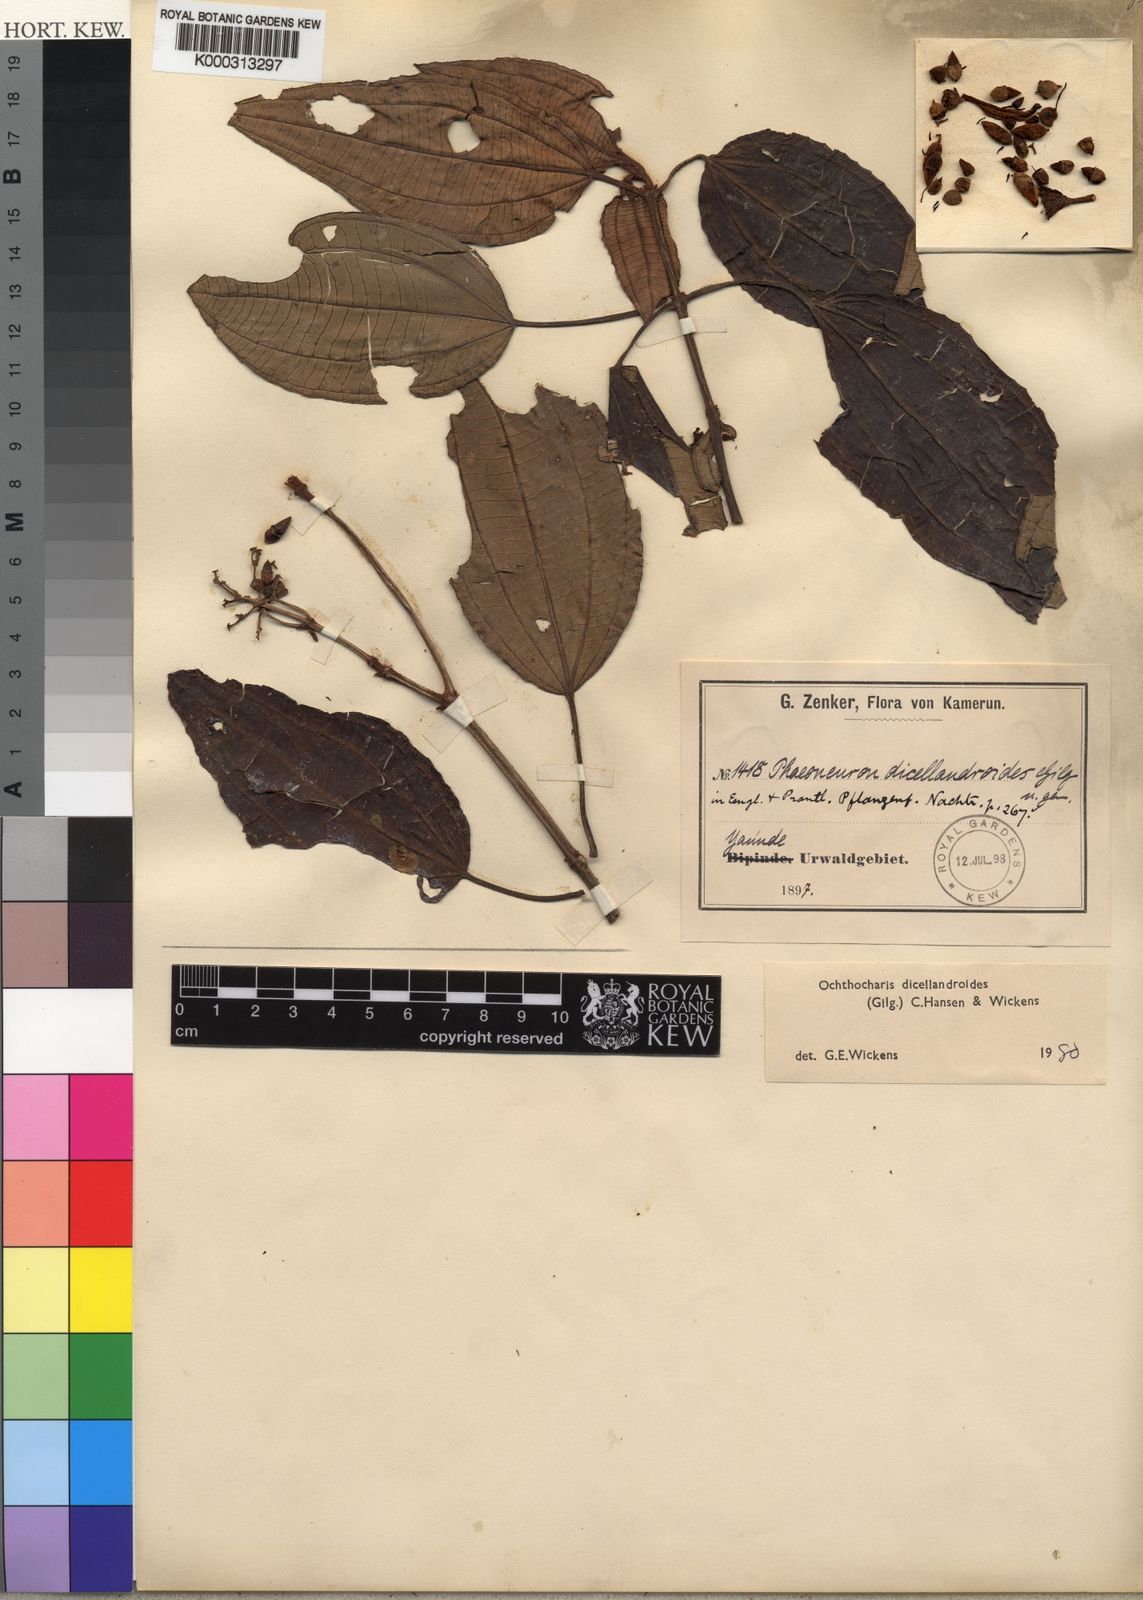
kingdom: Plantae
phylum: Tracheophyta
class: Magnoliopsida
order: Myrtales
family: Melastomataceae
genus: Ochthocharis
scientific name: Ochthocharis dicellandroides
